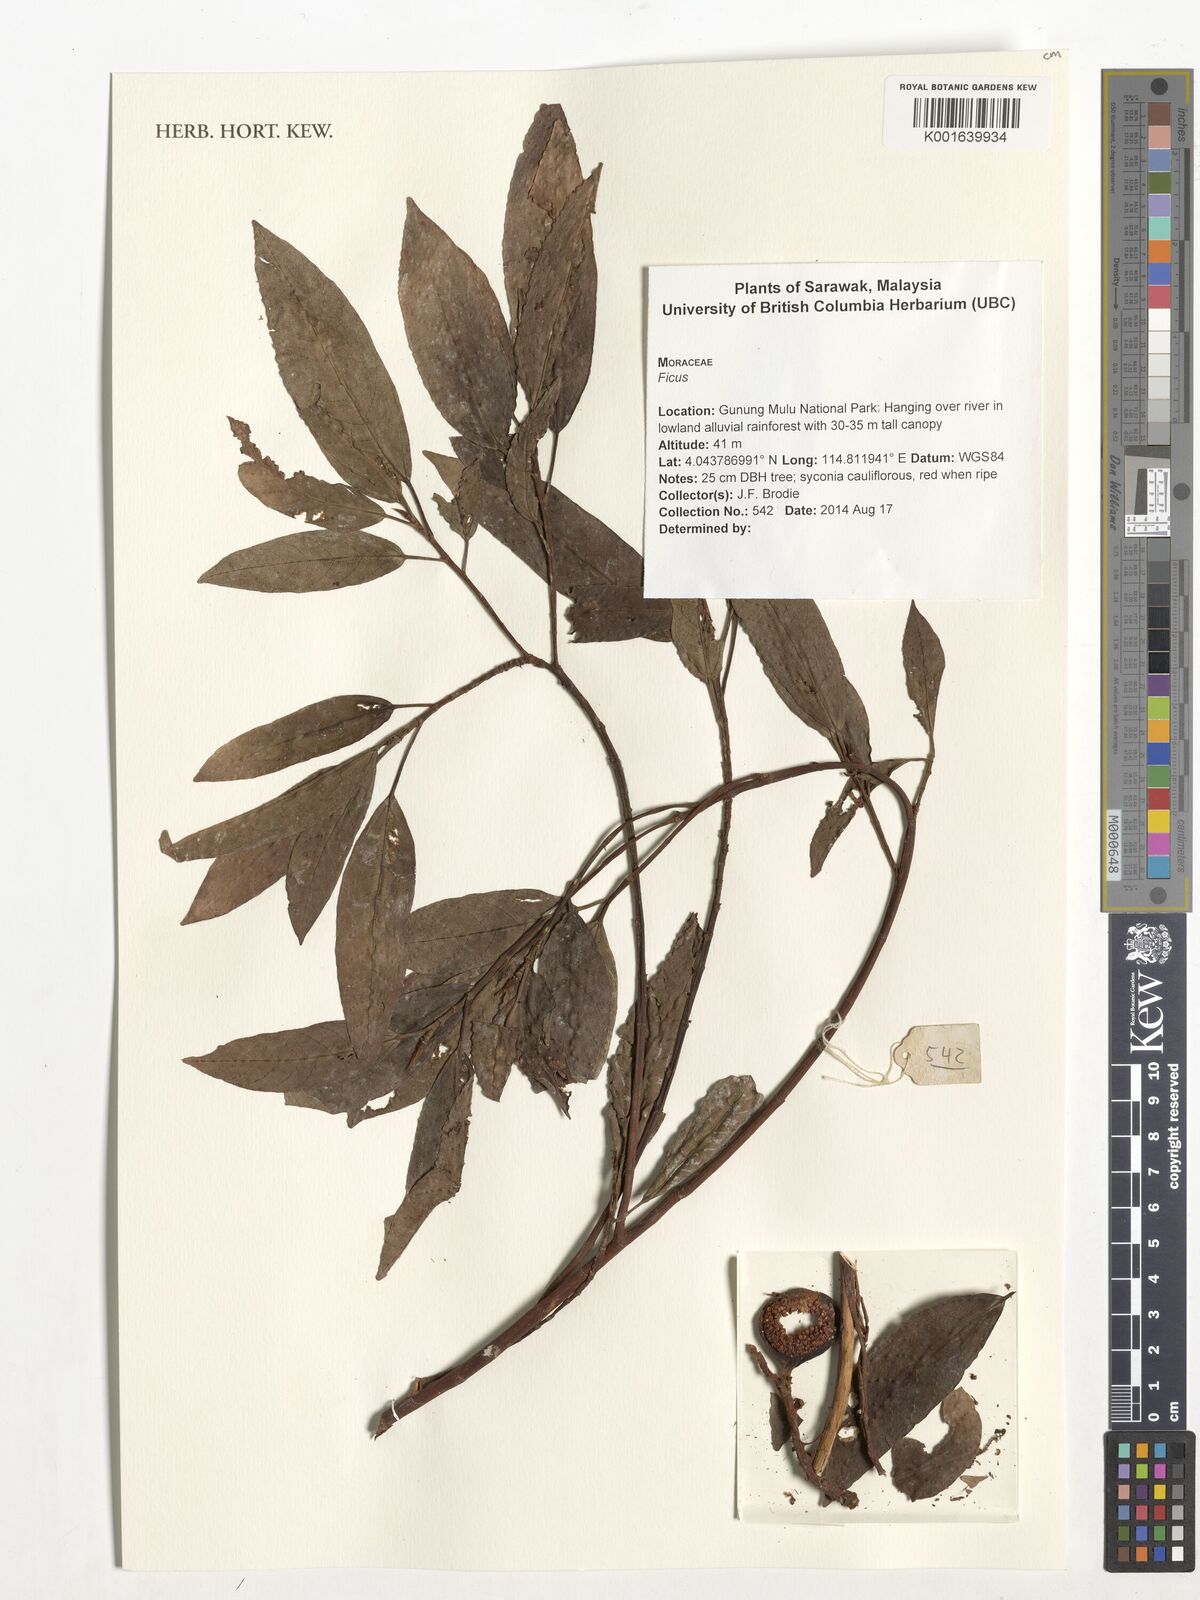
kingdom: Plantae
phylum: Tracheophyta
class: Magnoliopsida
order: Rosales
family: Moraceae
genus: Ficus
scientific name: Ficus
